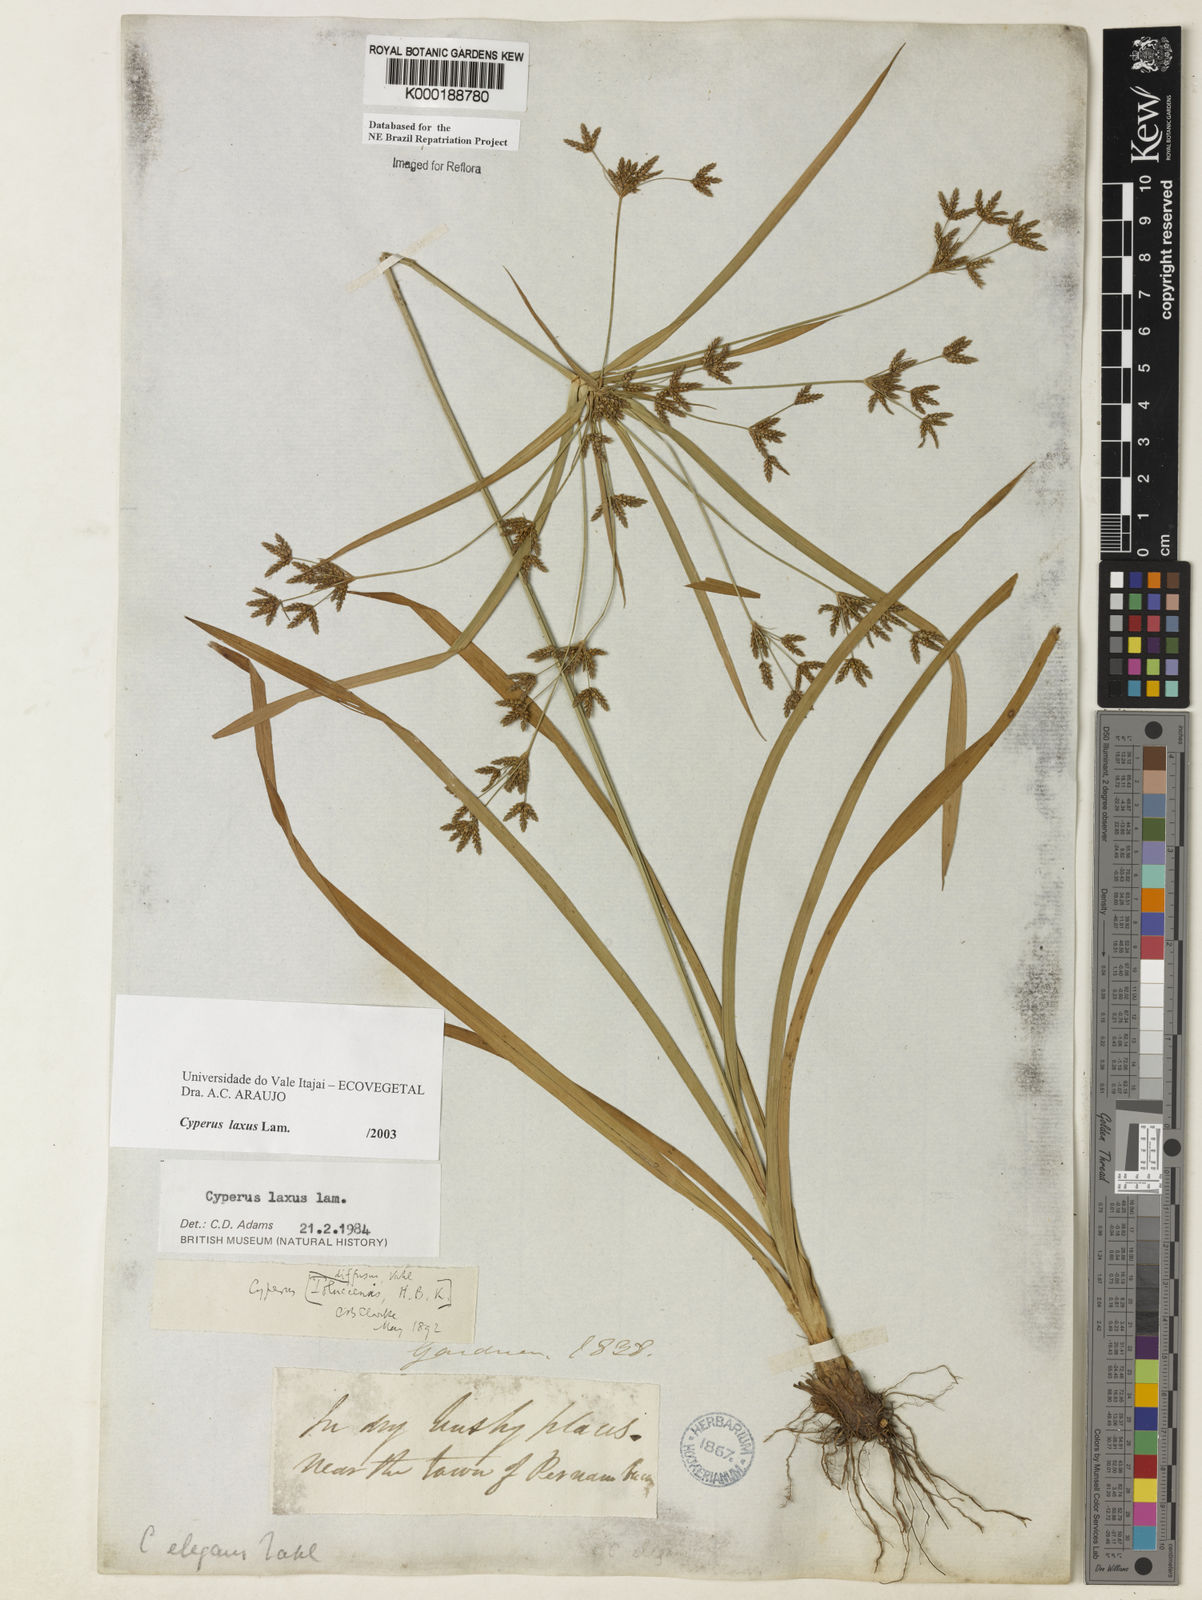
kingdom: Plantae
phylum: Tracheophyta
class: Liliopsida
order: Poales
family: Cyperaceae
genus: Cyperus
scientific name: Cyperus laxus
